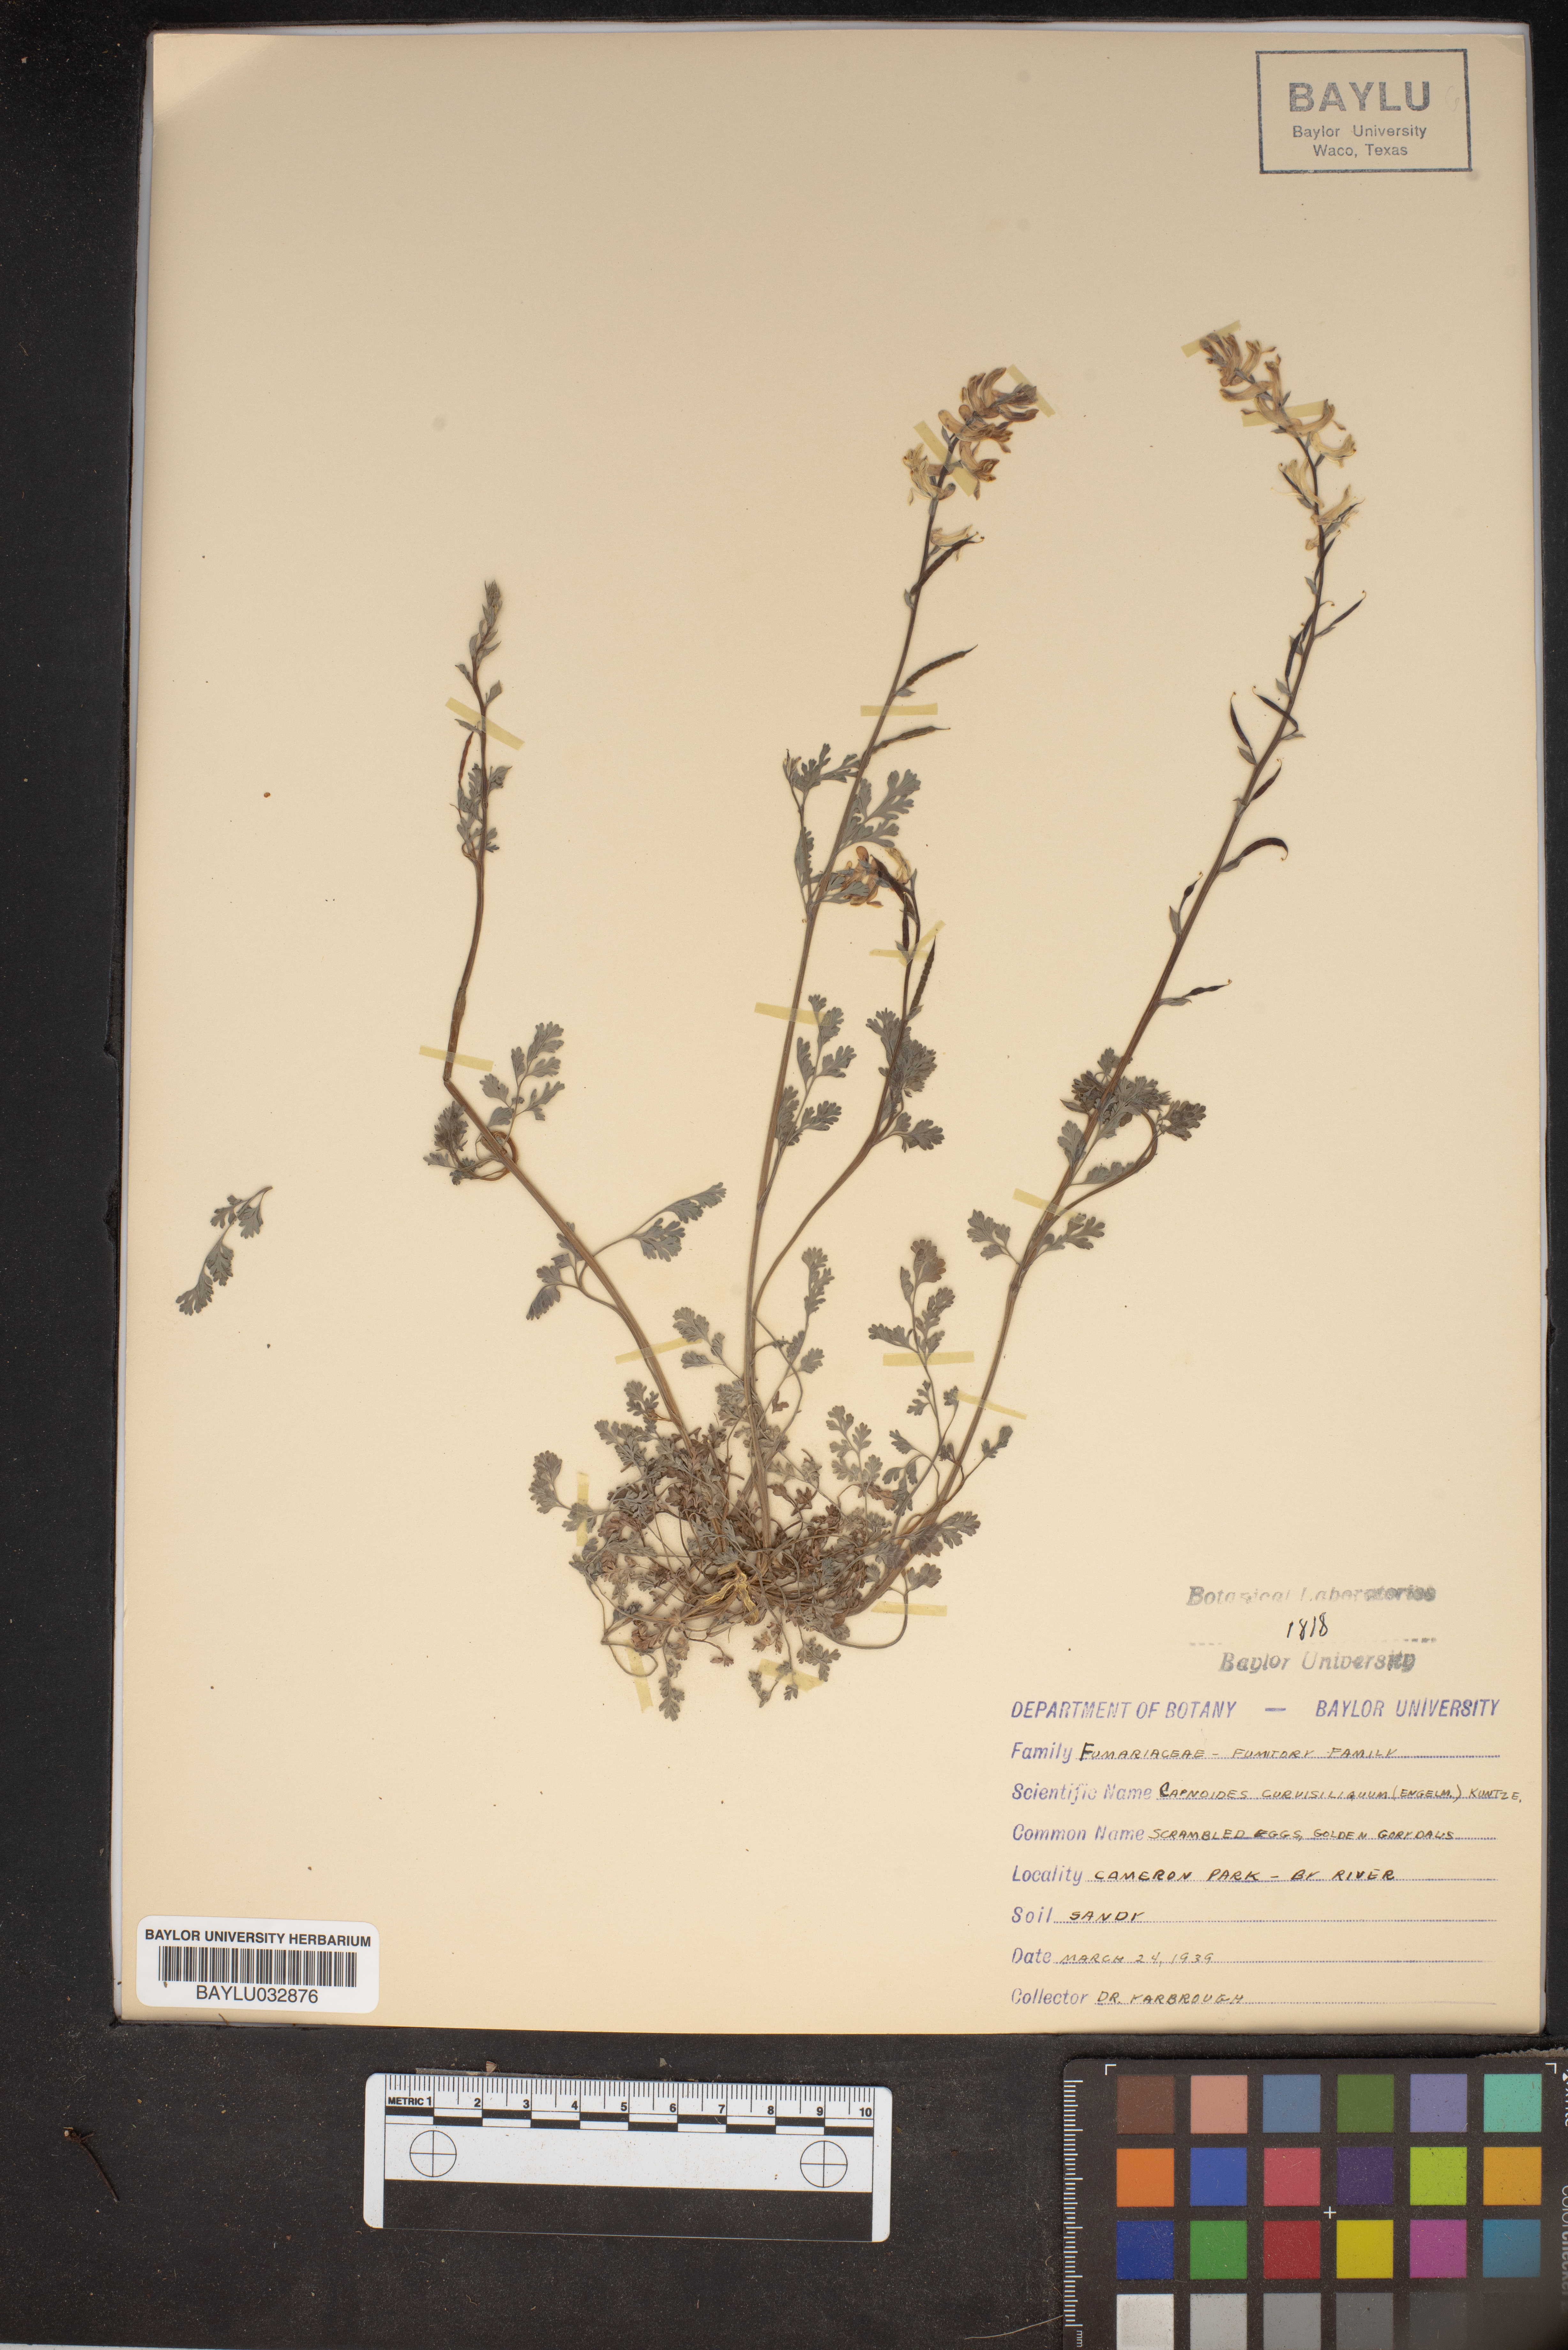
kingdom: Plantae
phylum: Tracheophyta
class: Magnoliopsida
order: Ranunculales
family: Papaveraceae
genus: Corydalis
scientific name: Corydalis curvisiliqua
